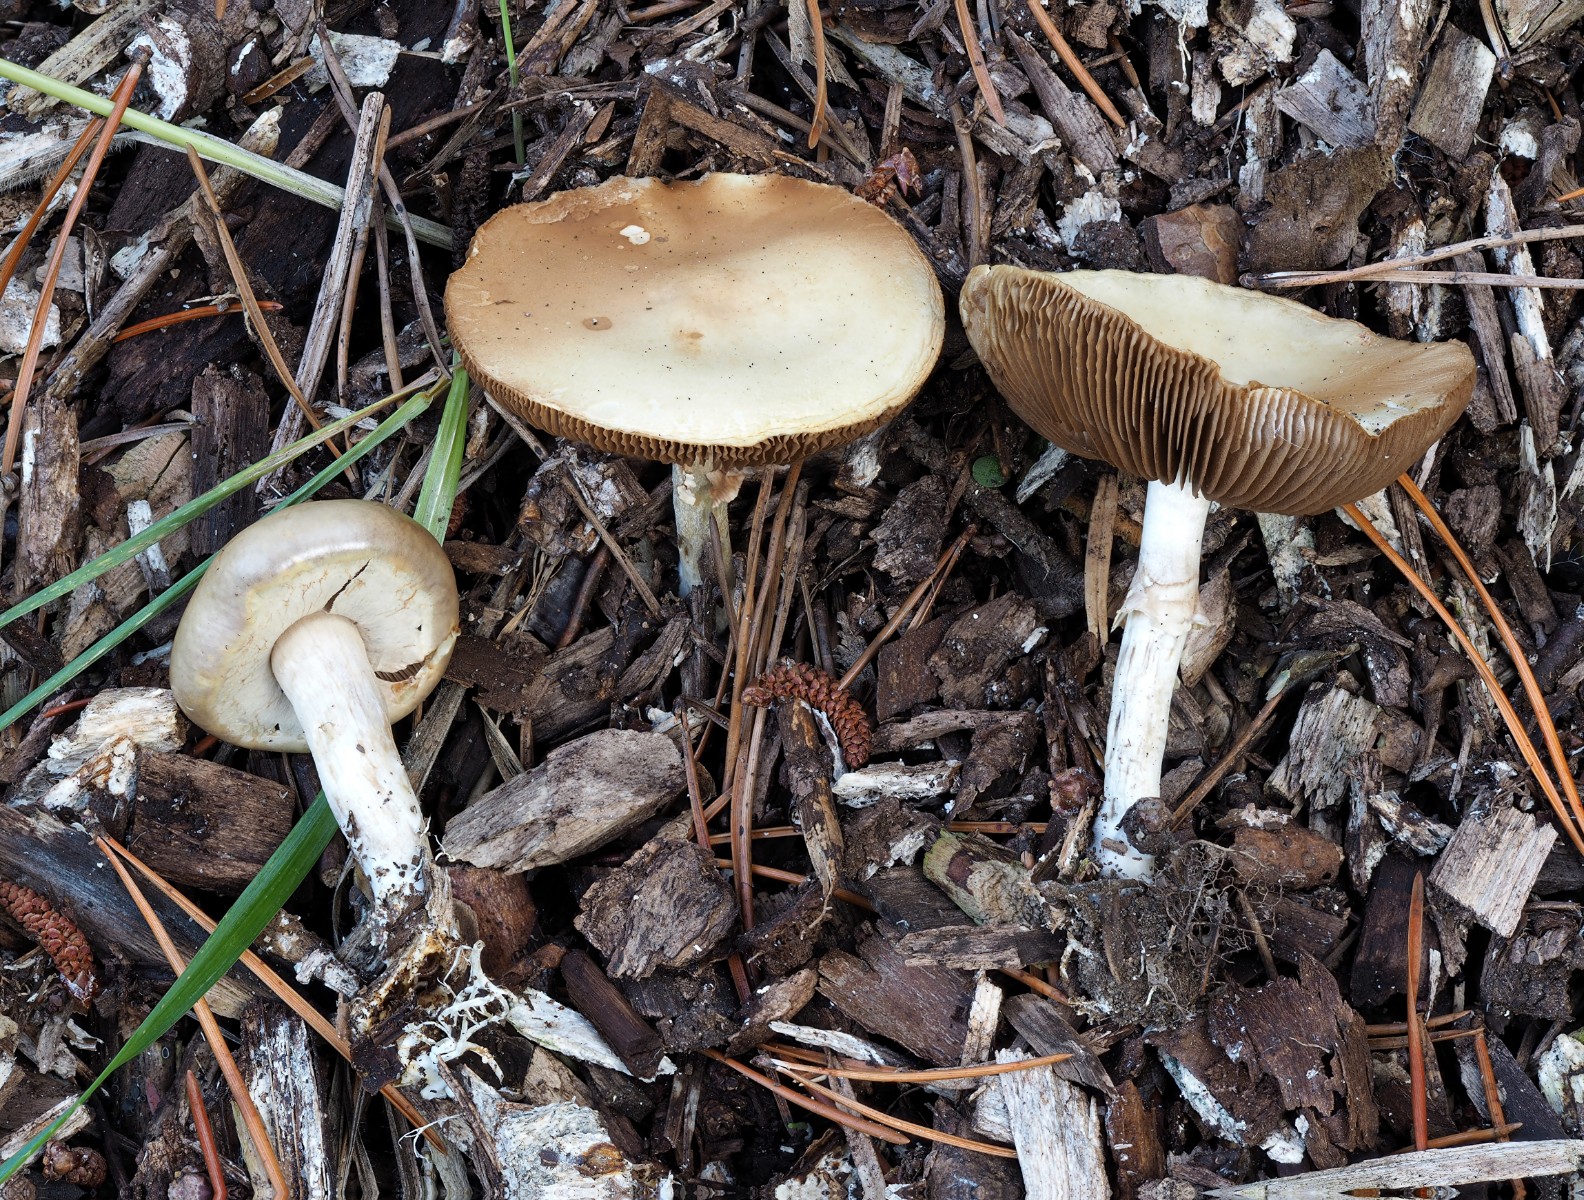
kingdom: Fungi
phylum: Basidiomycota
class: Agaricomycetes
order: Agaricales
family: Strophariaceae
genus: Agrocybe
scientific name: Agrocybe praecox
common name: tidlig agerhat
